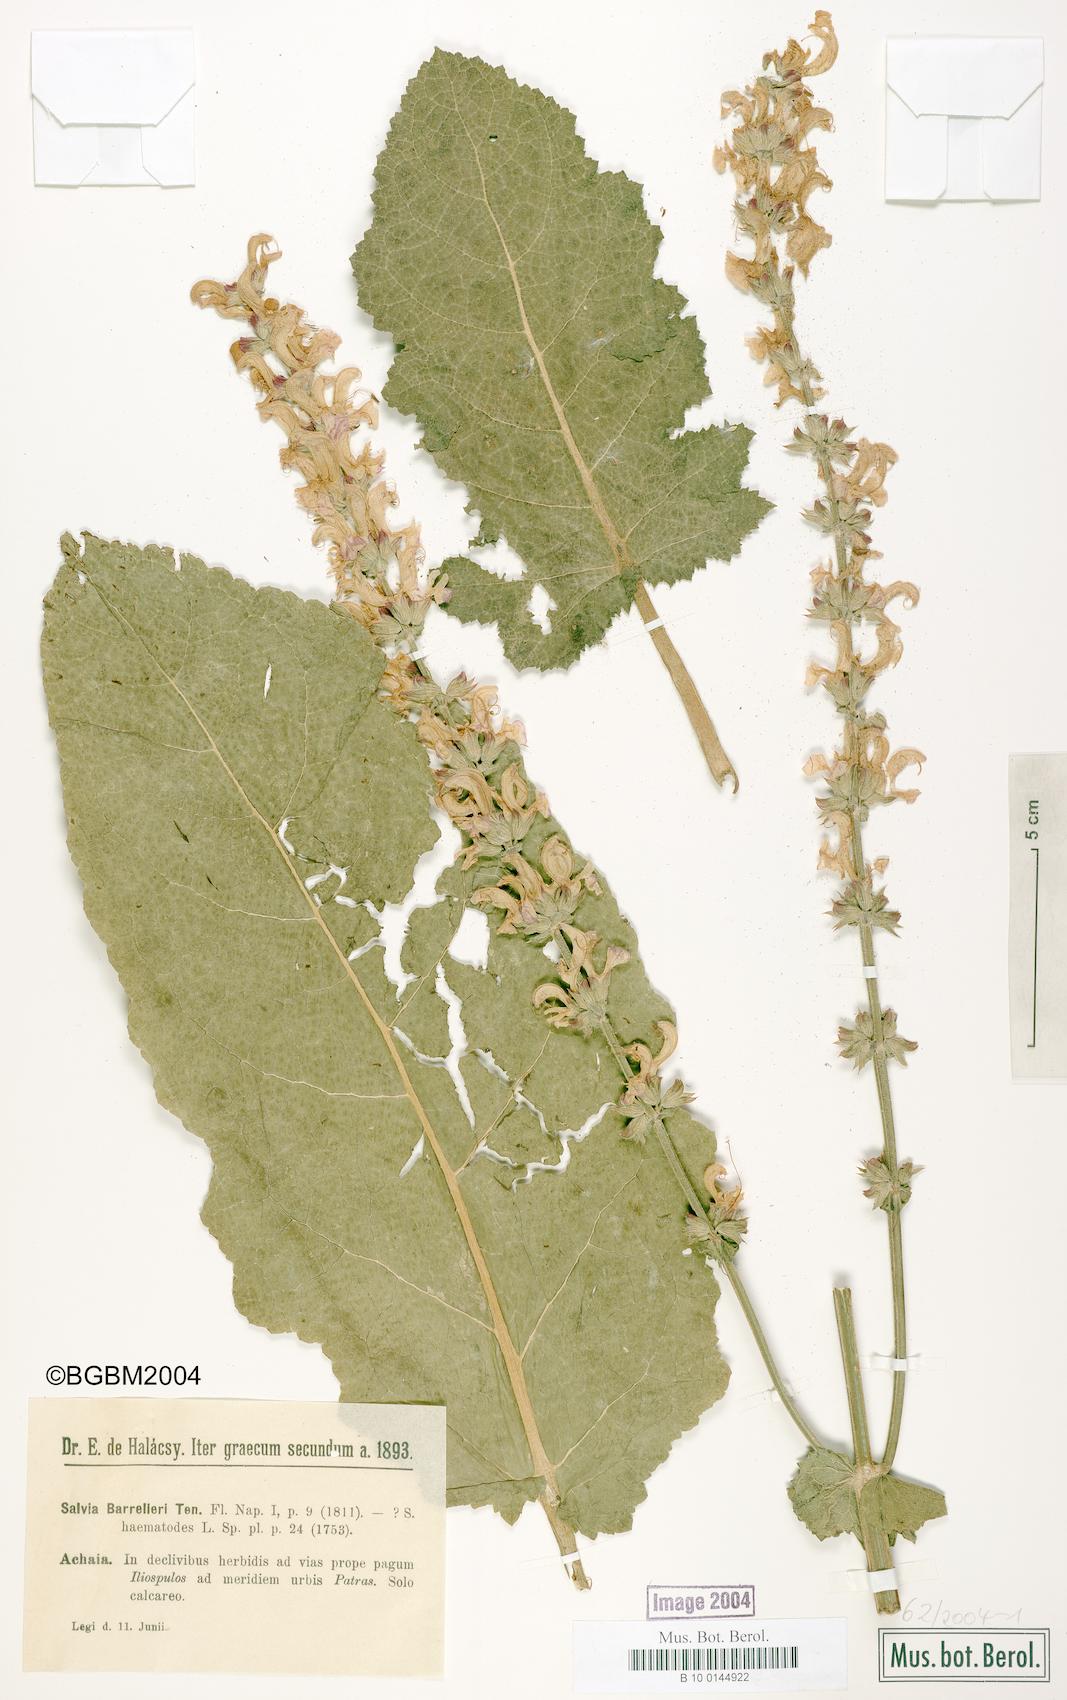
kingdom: Plantae
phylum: Tracheophyta
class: Magnoliopsida
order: Lamiales
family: Lamiaceae
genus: Salvia
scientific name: Salvia barrelieri
